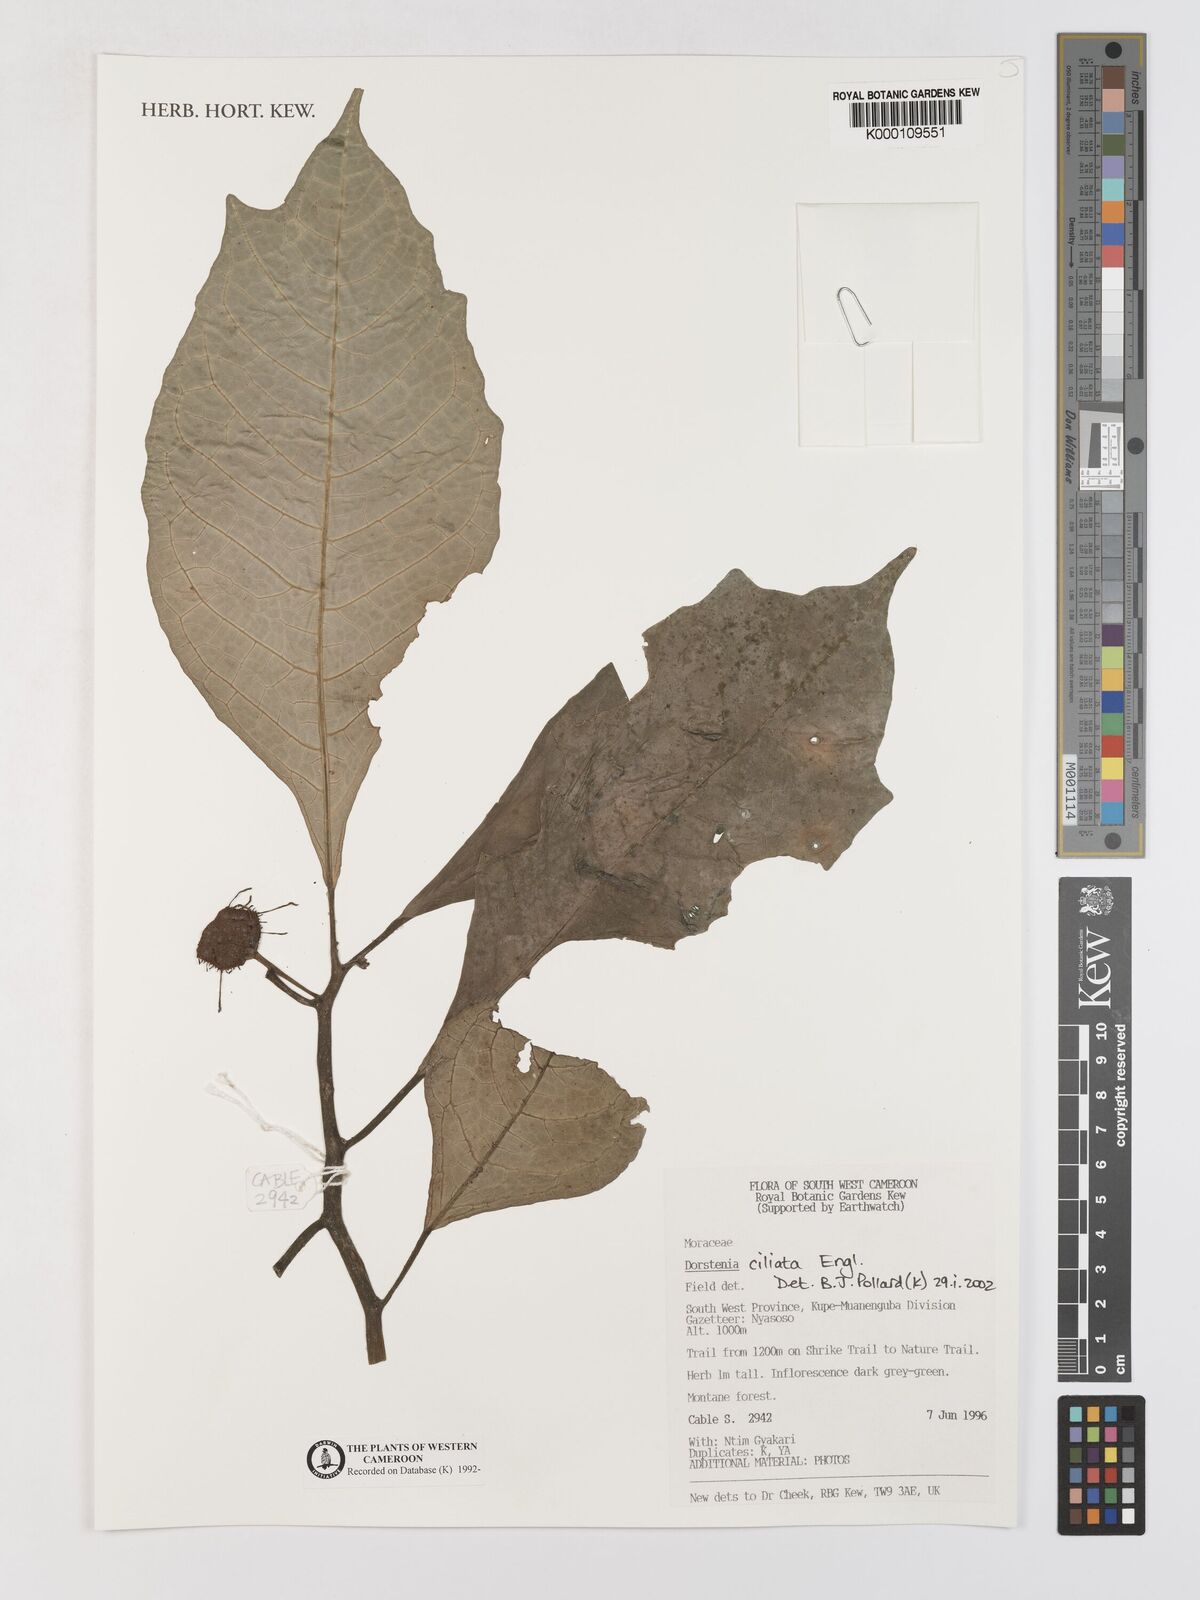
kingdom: Plantae
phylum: Tracheophyta
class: Magnoliopsida
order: Rosales
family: Moraceae
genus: Dorstenia
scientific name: Dorstenia ciliata
